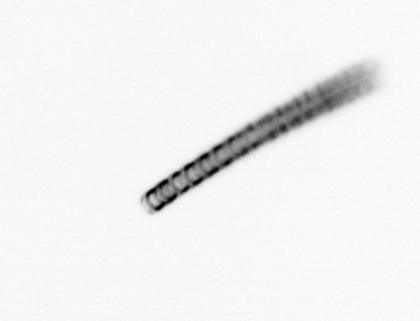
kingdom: Chromista
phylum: Ochrophyta
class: Bacillariophyceae
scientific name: Bacillariophyceae
